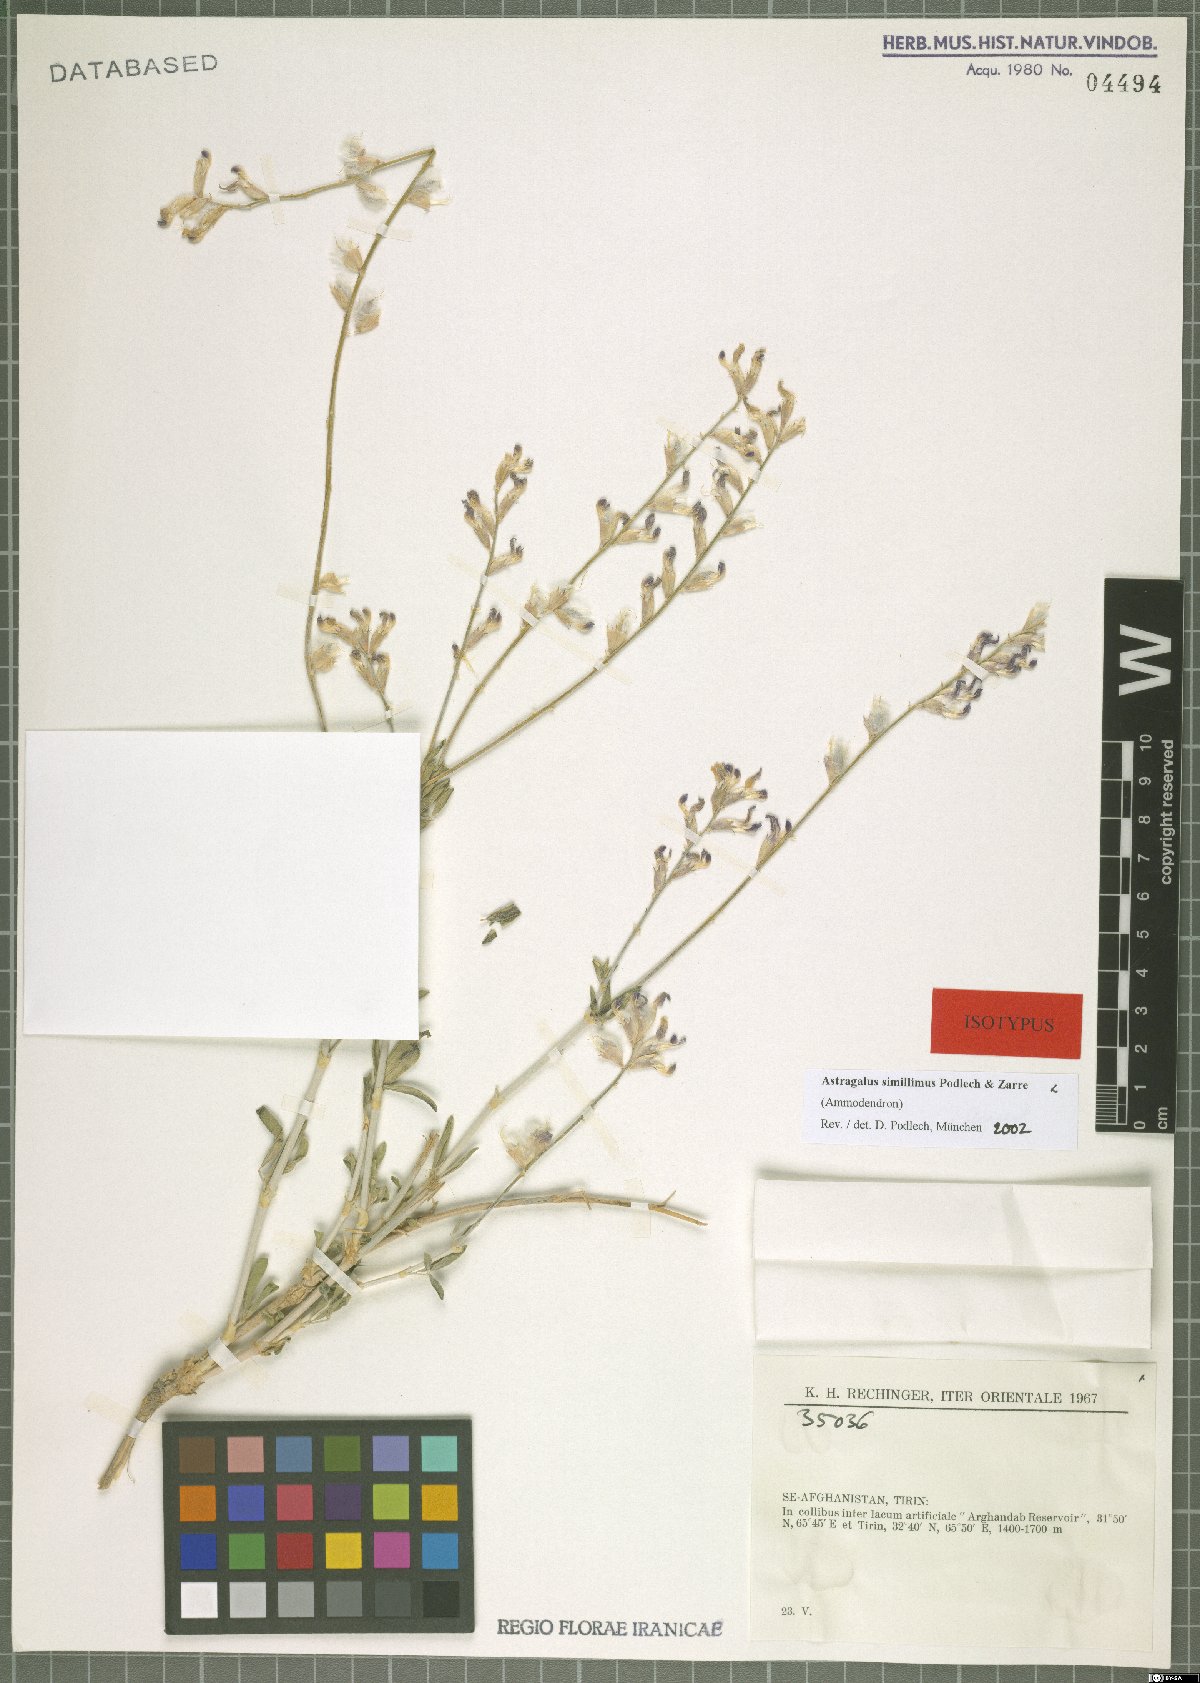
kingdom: Plantae
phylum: Tracheophyta
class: Magnoliopsida
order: Fabales
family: Fabaceae
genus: Astragalus
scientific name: Astragalus similissimus
